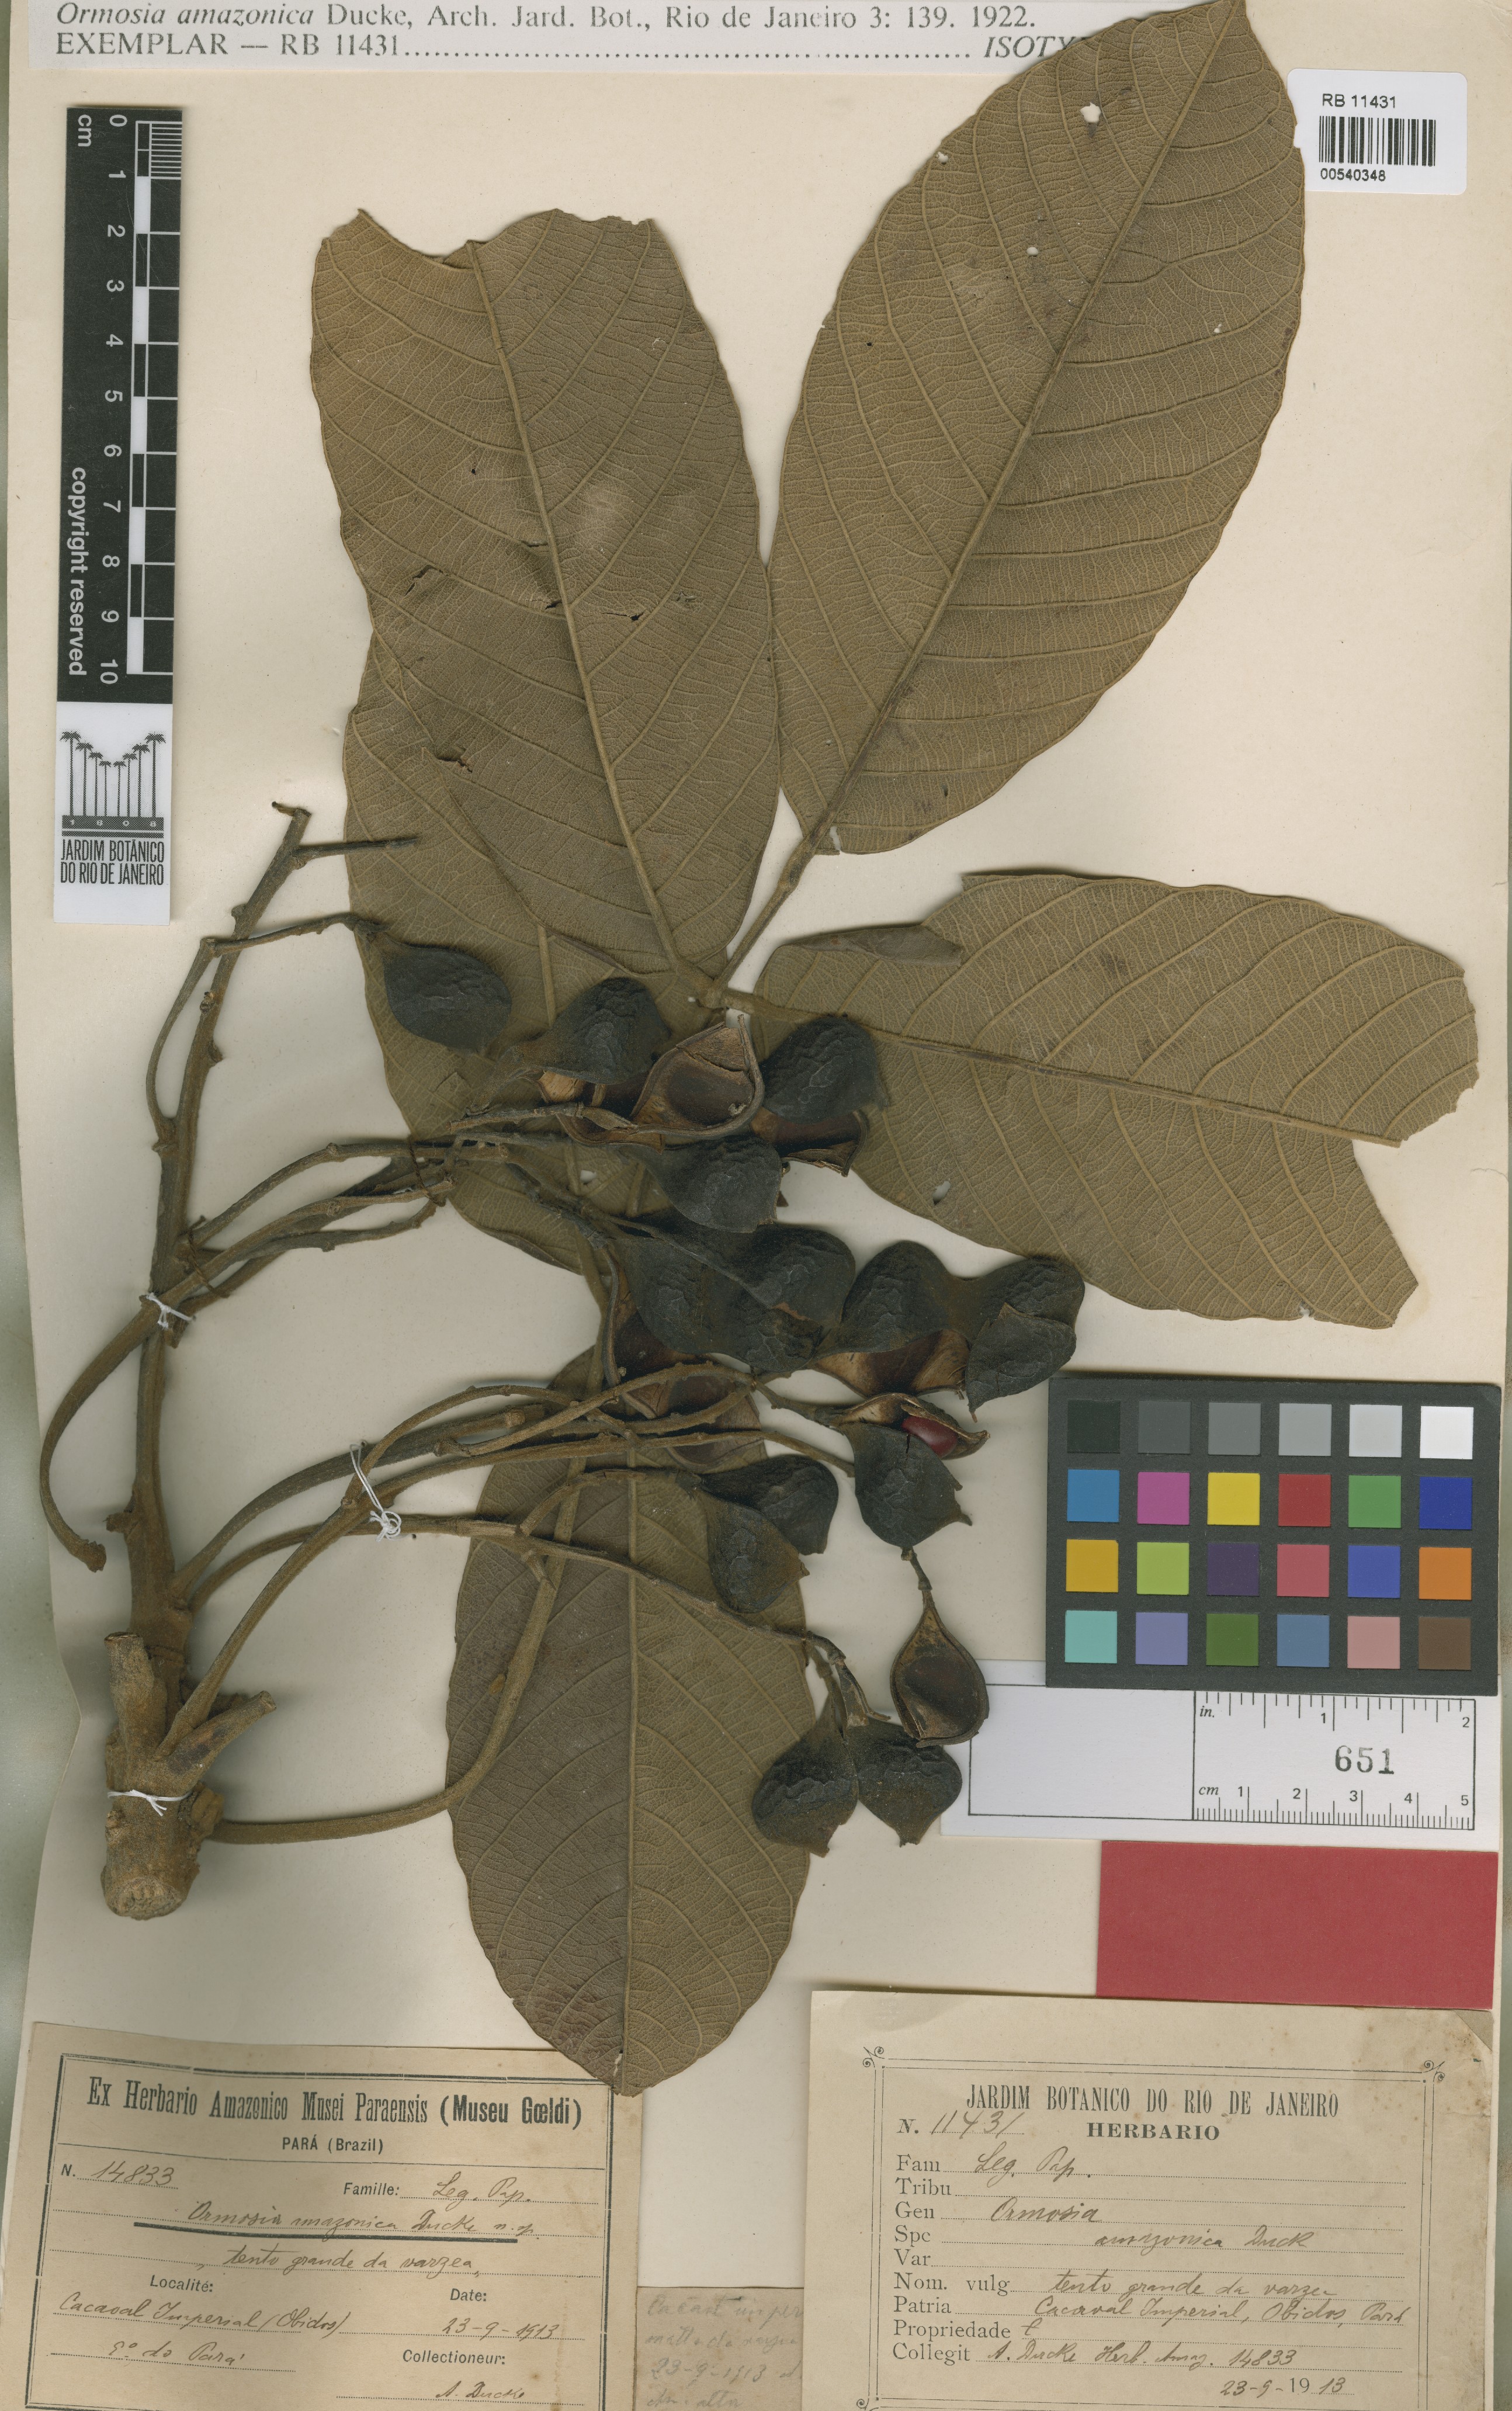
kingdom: Plantae
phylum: Tracheophyta
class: Magnoliopsida
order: Fabales
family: Fabaceae
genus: Ormosia
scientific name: Ormosia amazonica
